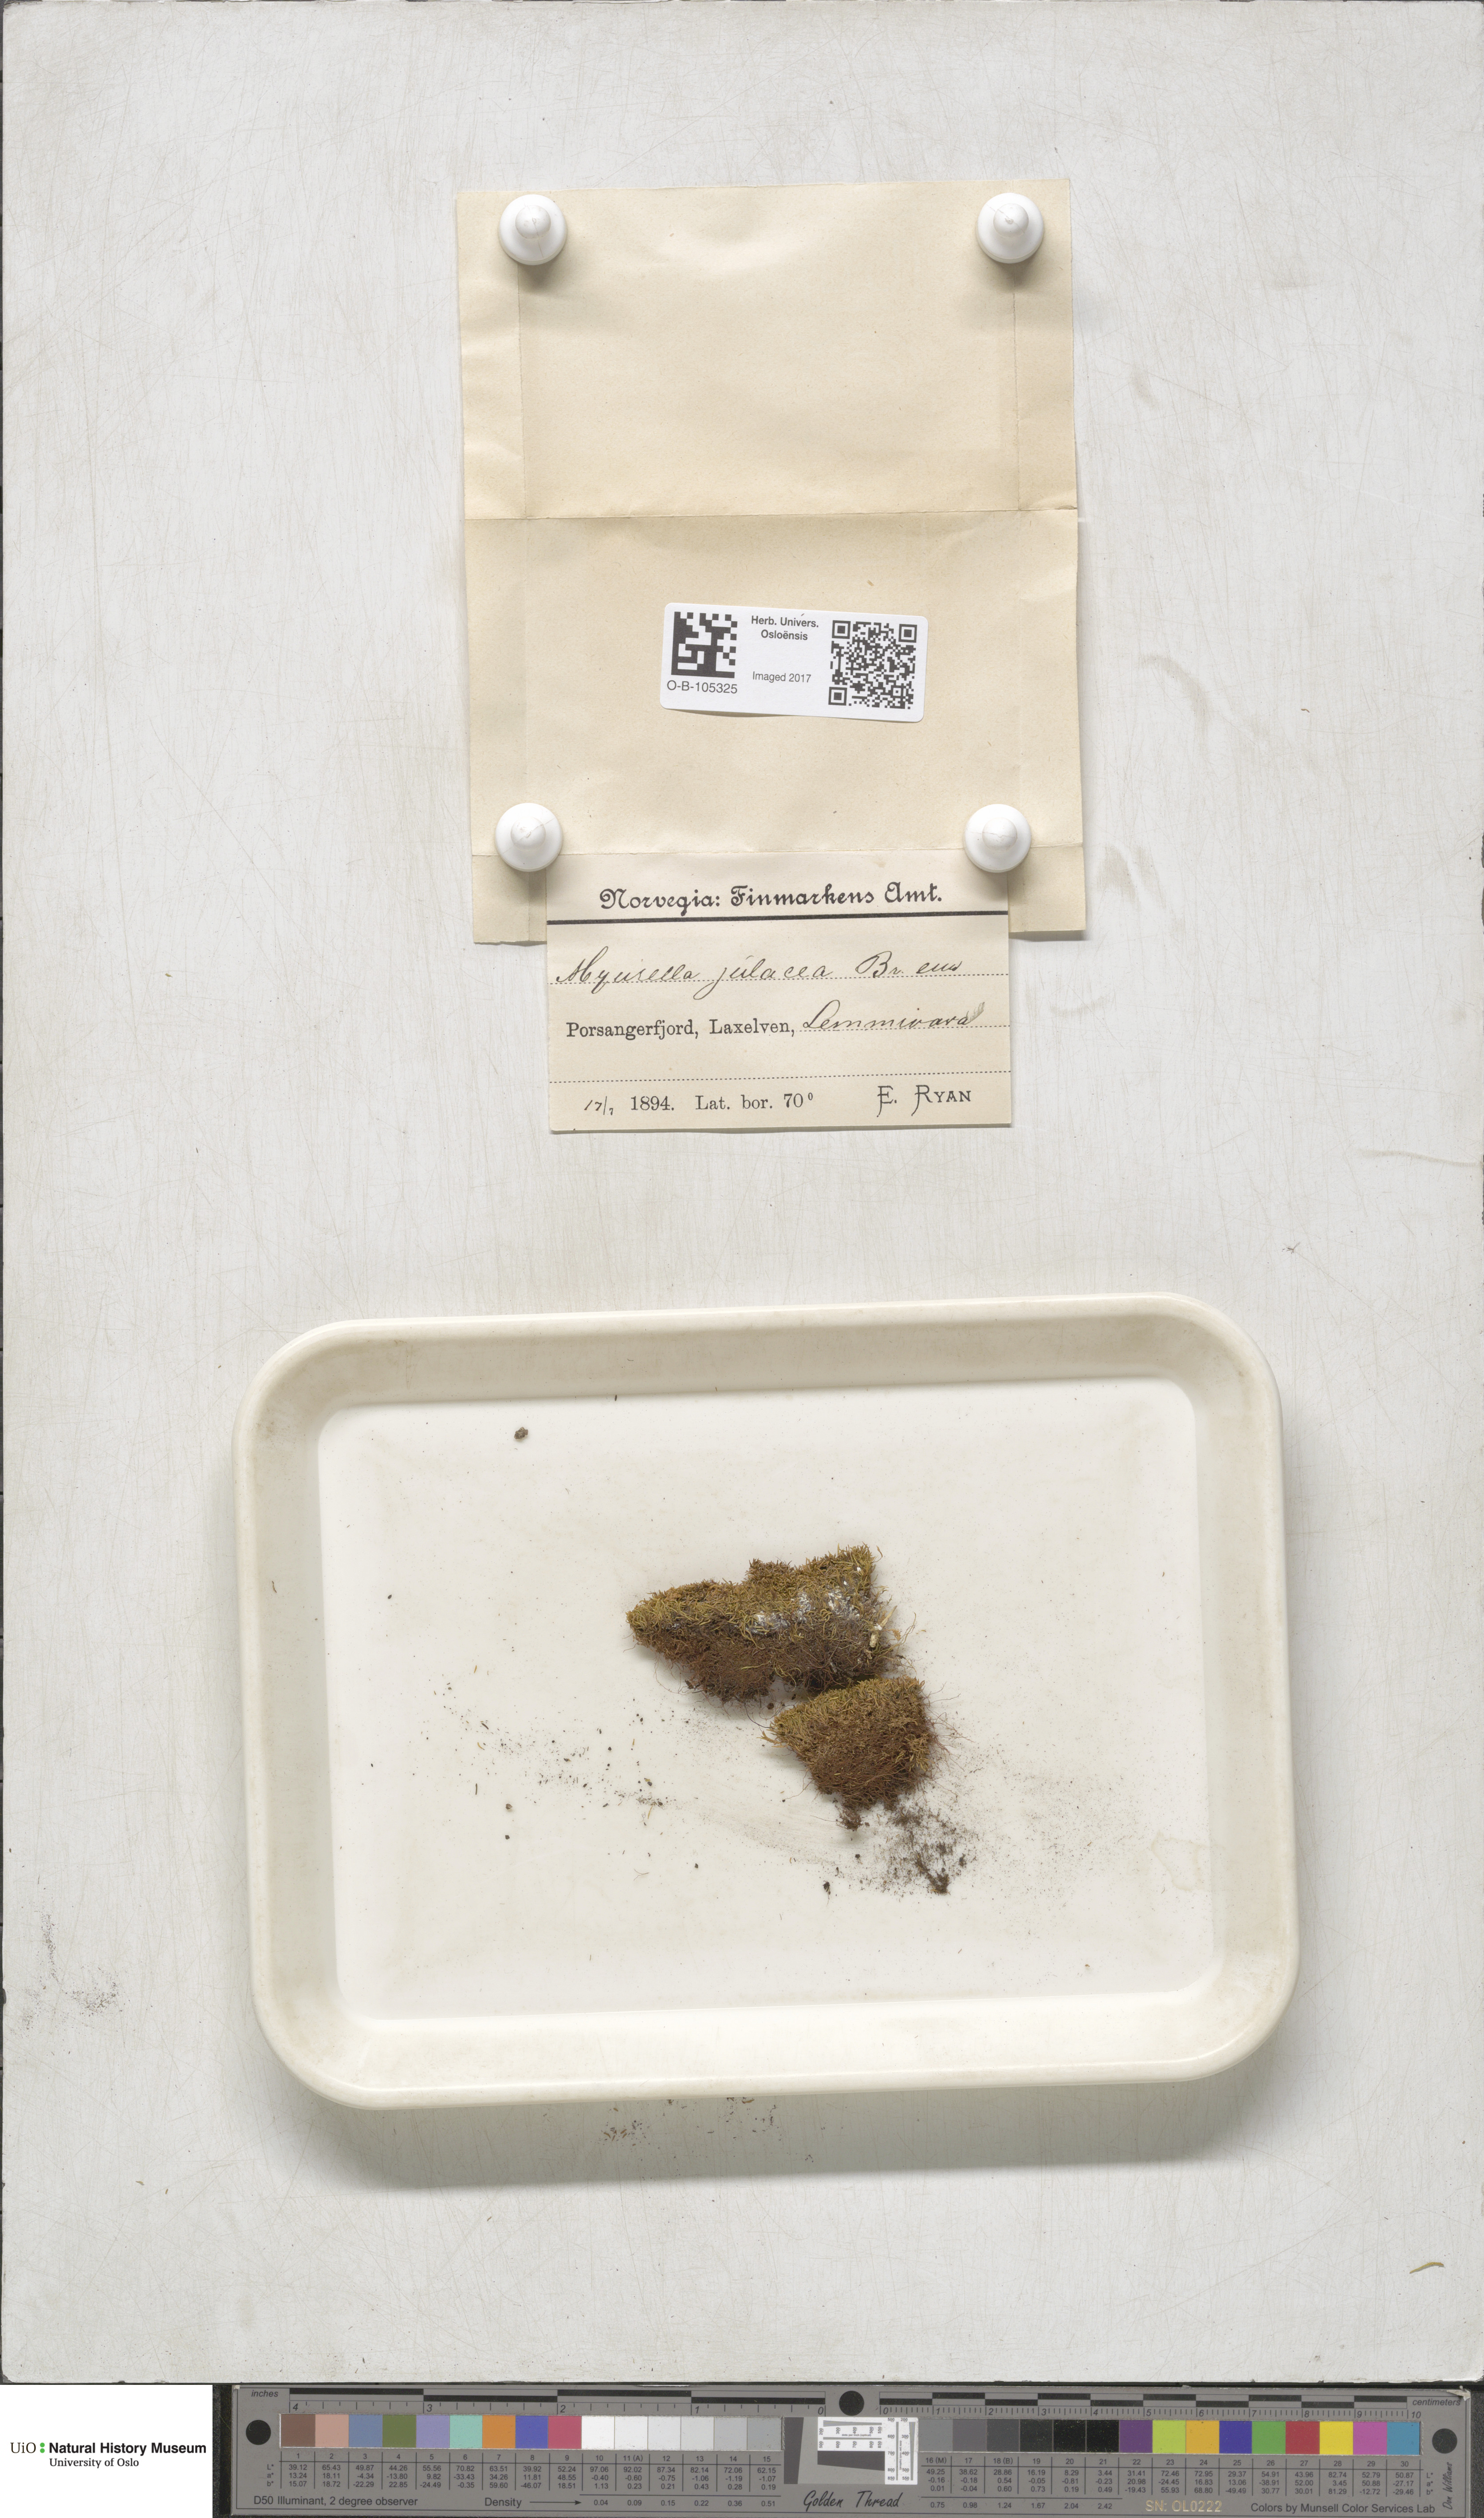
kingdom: Plantae
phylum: Bryophyta
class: Bryopsida
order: Hypnales
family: Plagiotheciaceae
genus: Myurella
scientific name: Myurella julacea
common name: Small mousetail moss
